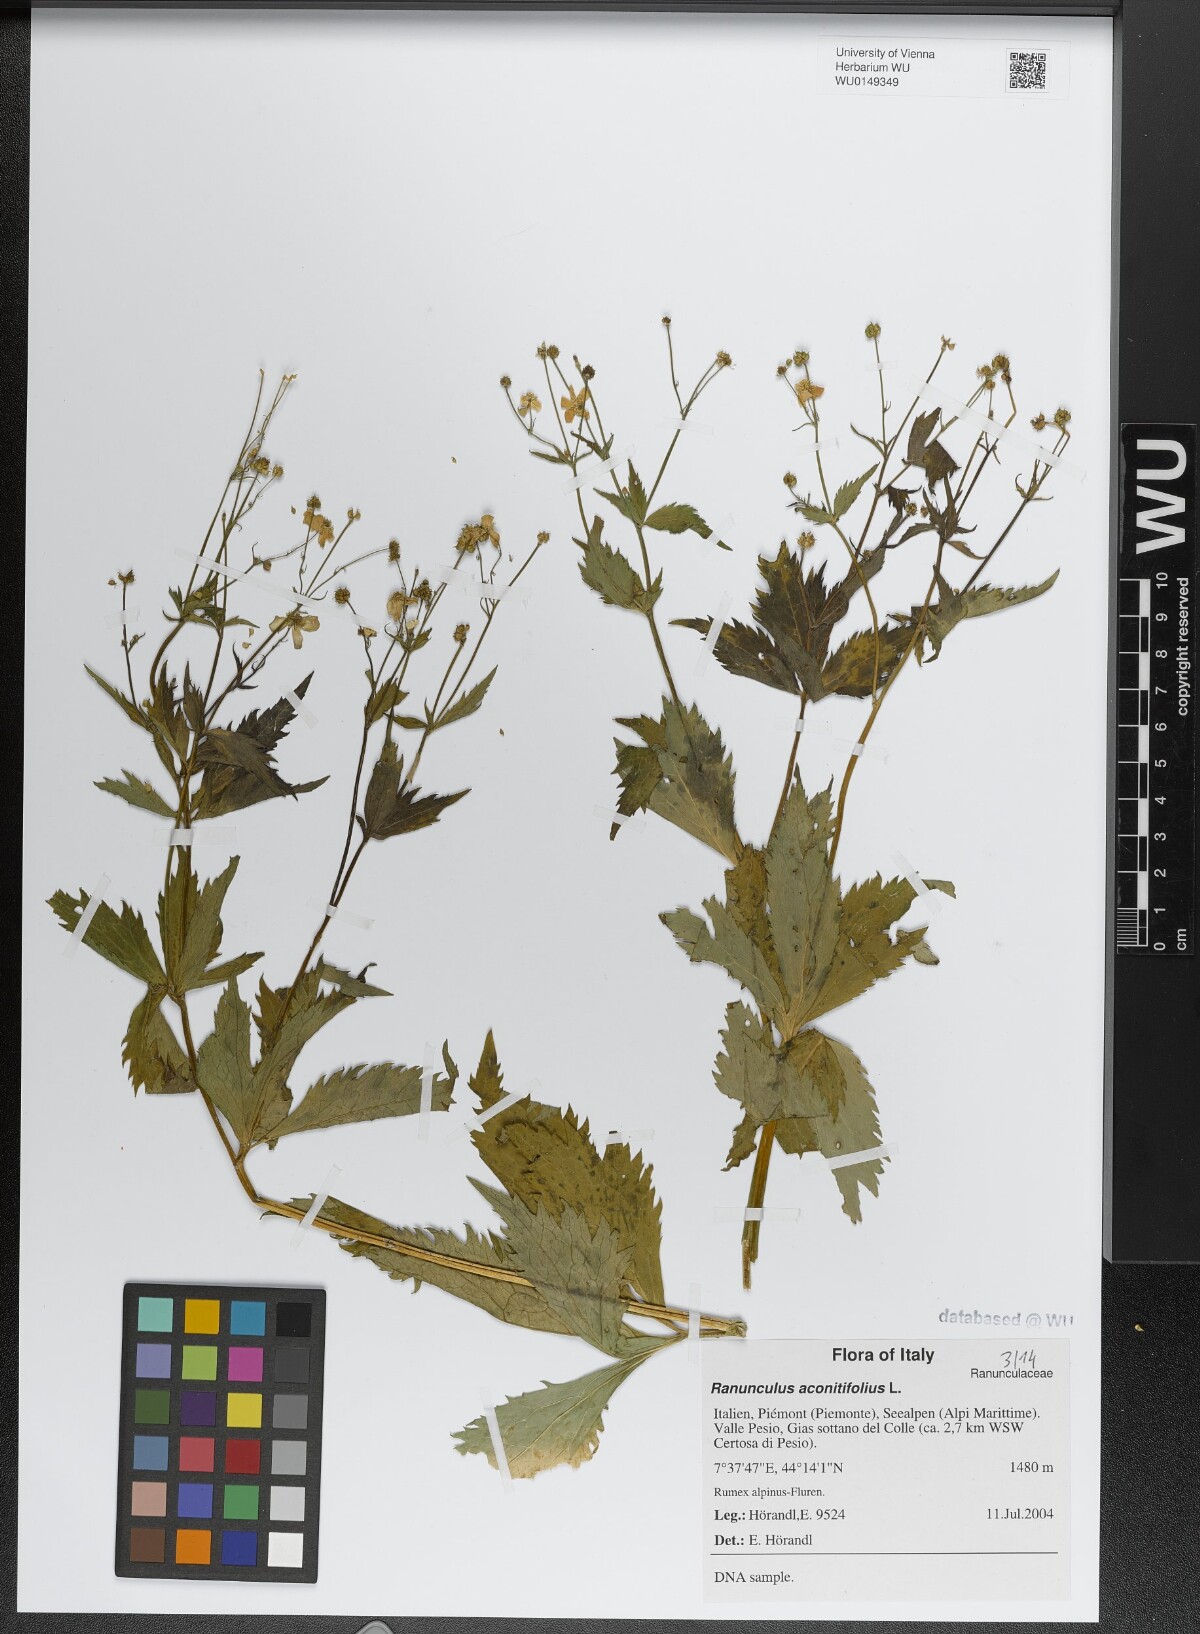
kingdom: Plantae
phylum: Tracheophyta
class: Magnoliopsida
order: Ranunculales
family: Ranunculaceae
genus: Ranunculus
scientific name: Ranunculus aconitifolius
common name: Aconite-leaved buttercup
